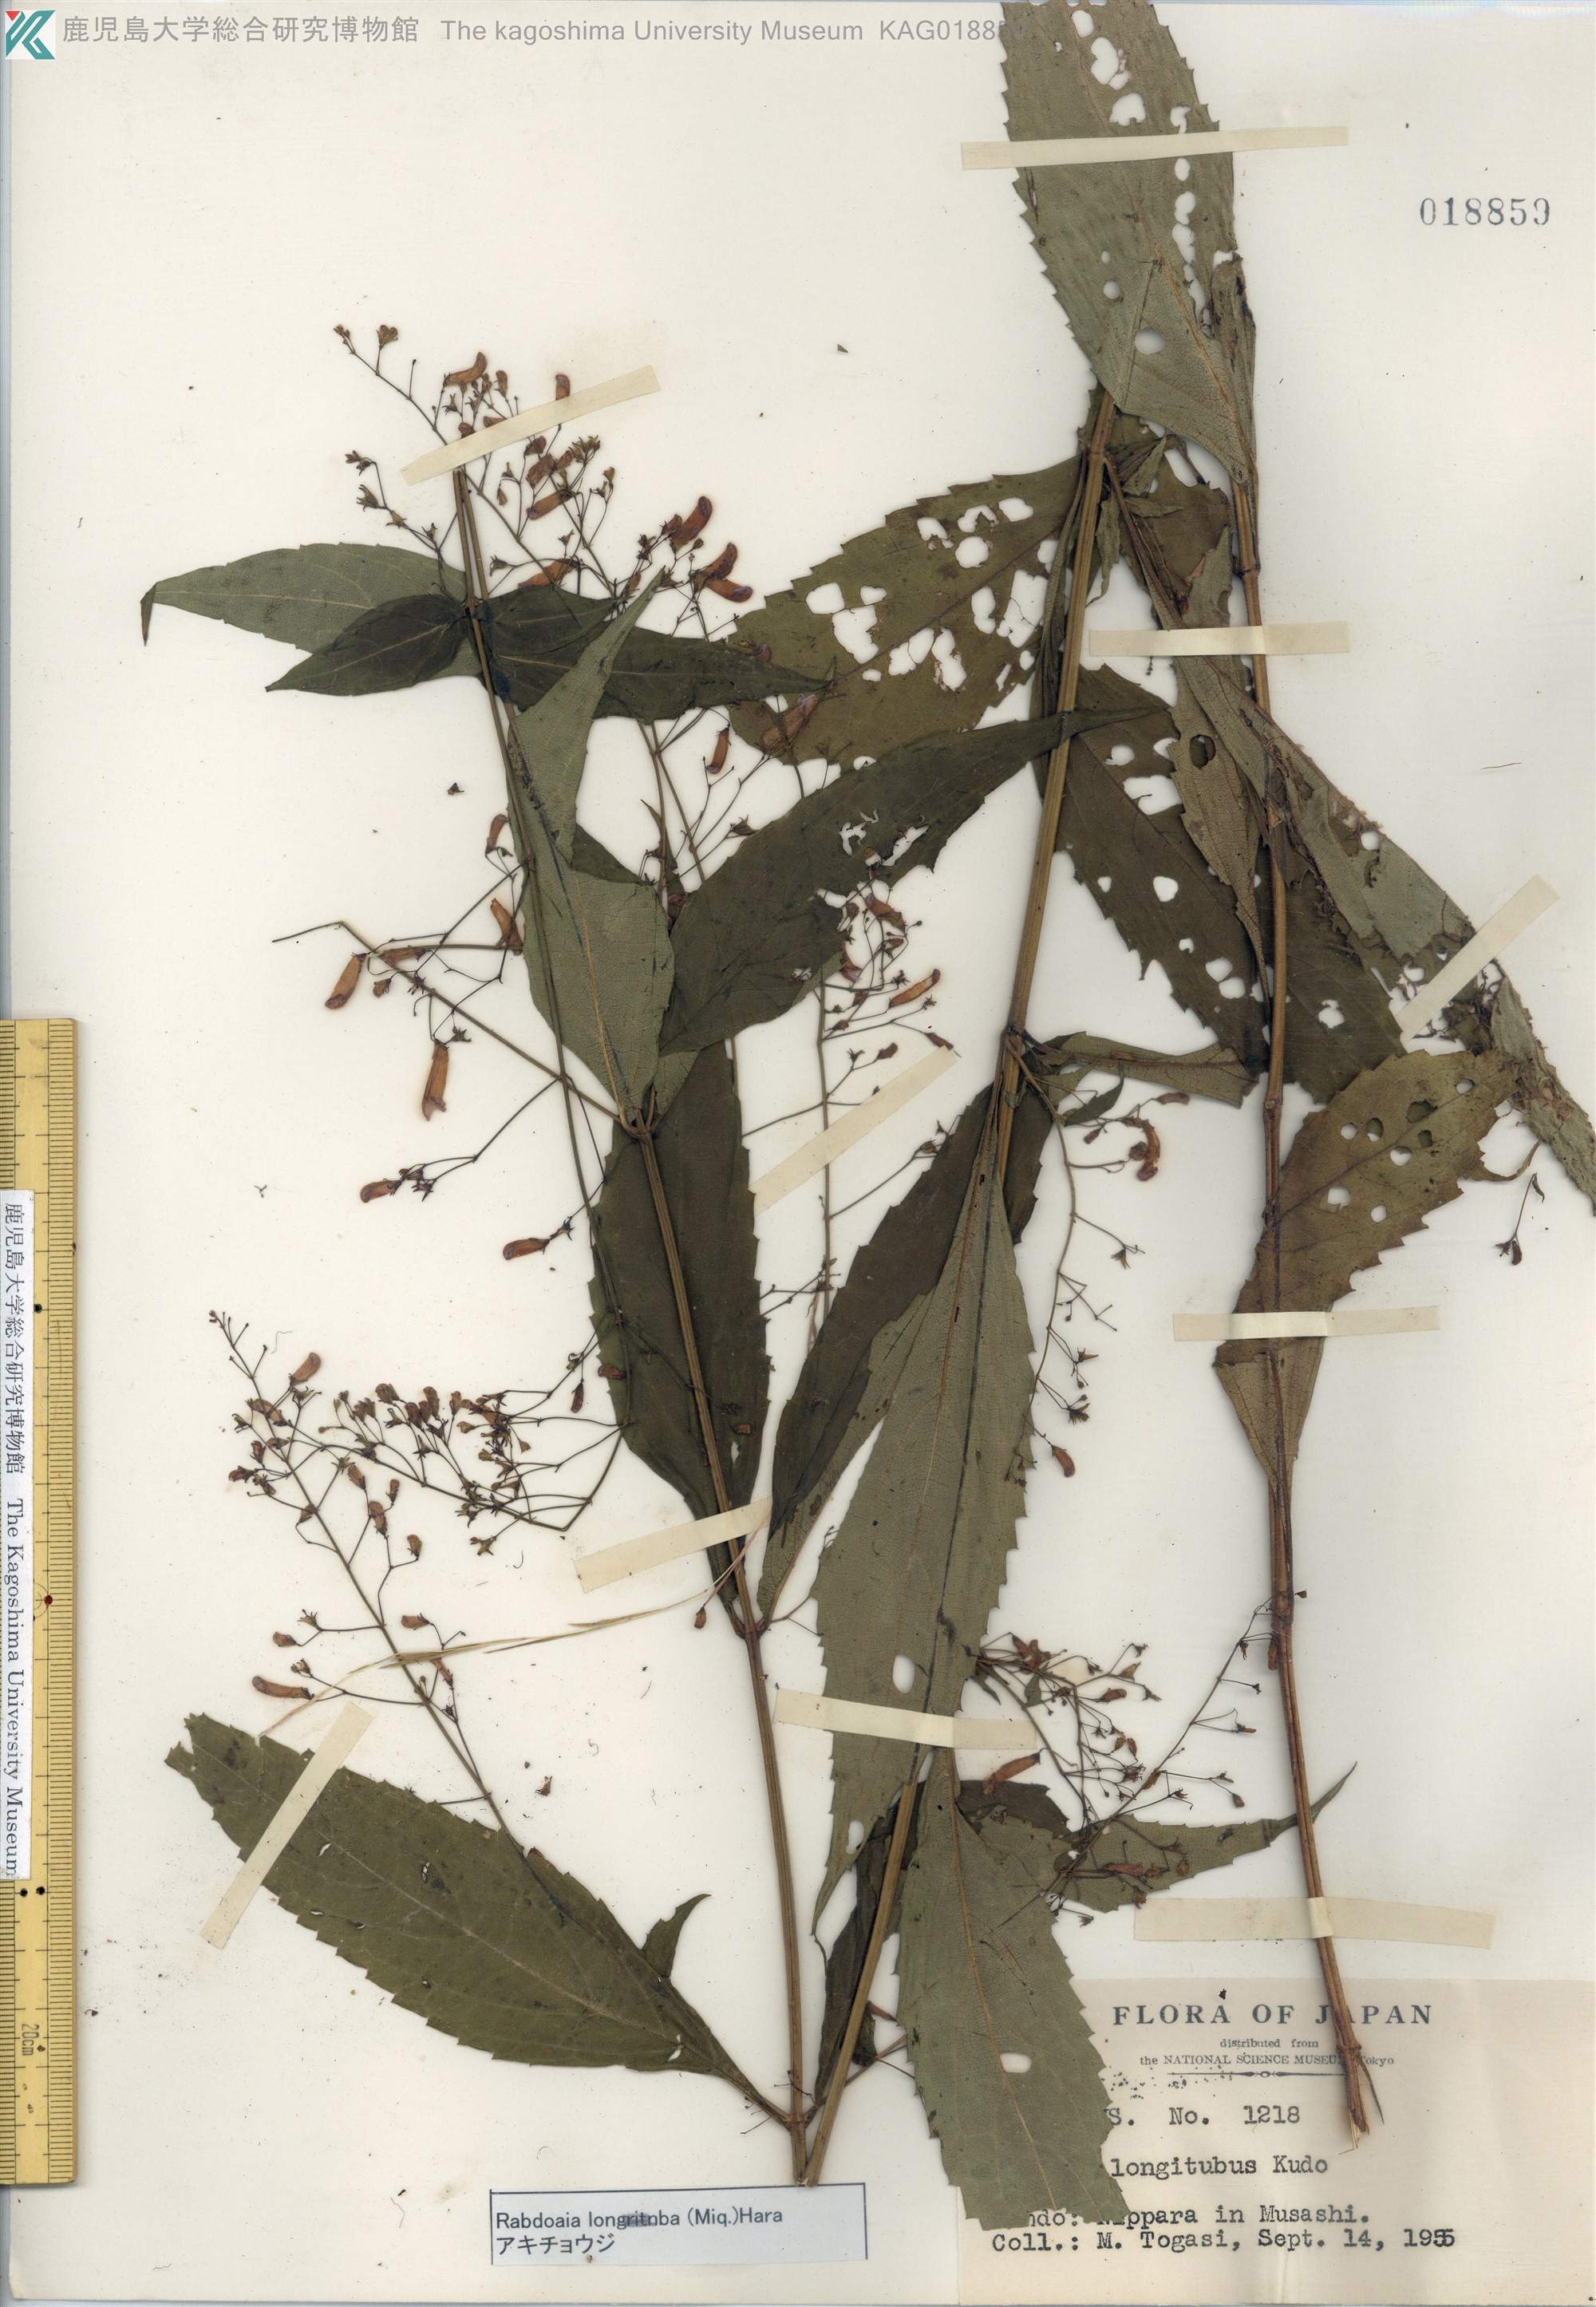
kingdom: Plantae
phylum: Tracheophyta
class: Magnoliopsida
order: Lamiales
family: Lamiaceae
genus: Isodon
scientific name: Isodon longitubus
